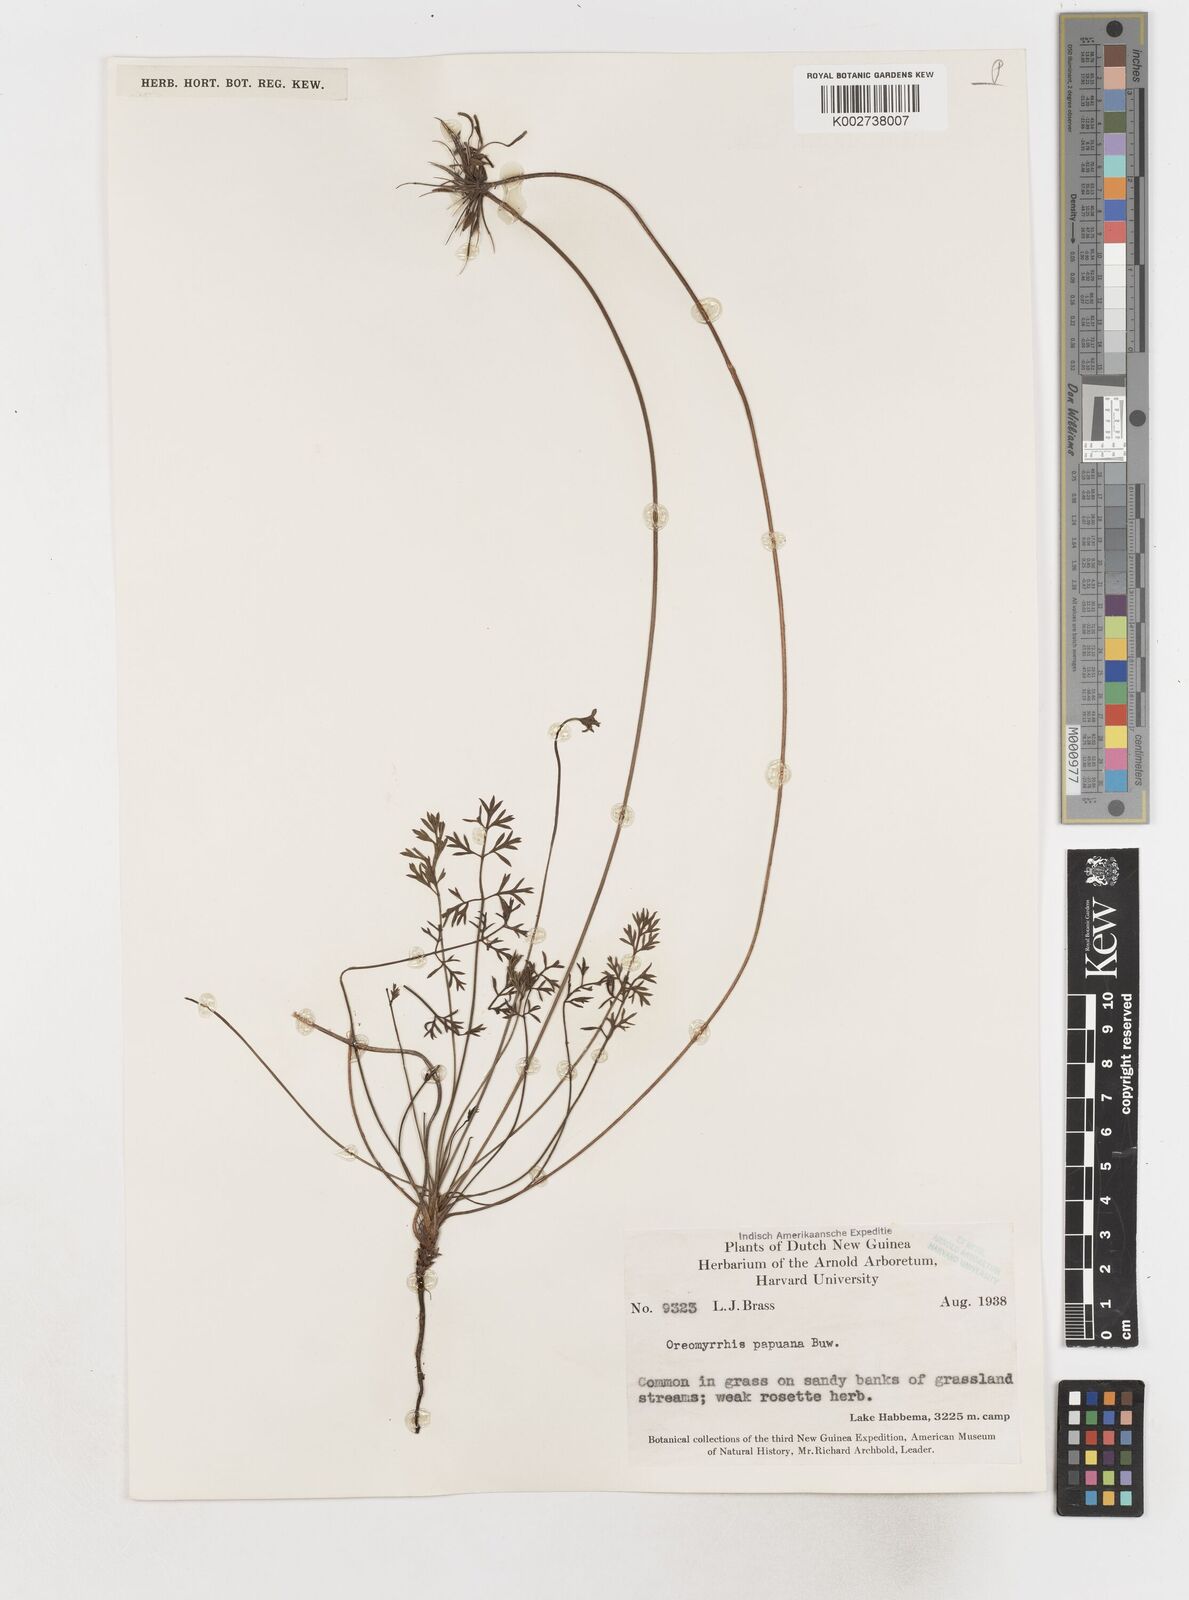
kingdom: Plantae
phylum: Tracheophyta
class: Magnoliopsida
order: Apiales
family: Apiaceae
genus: Chaerophyllum
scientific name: Chaerophyllum papuanum
